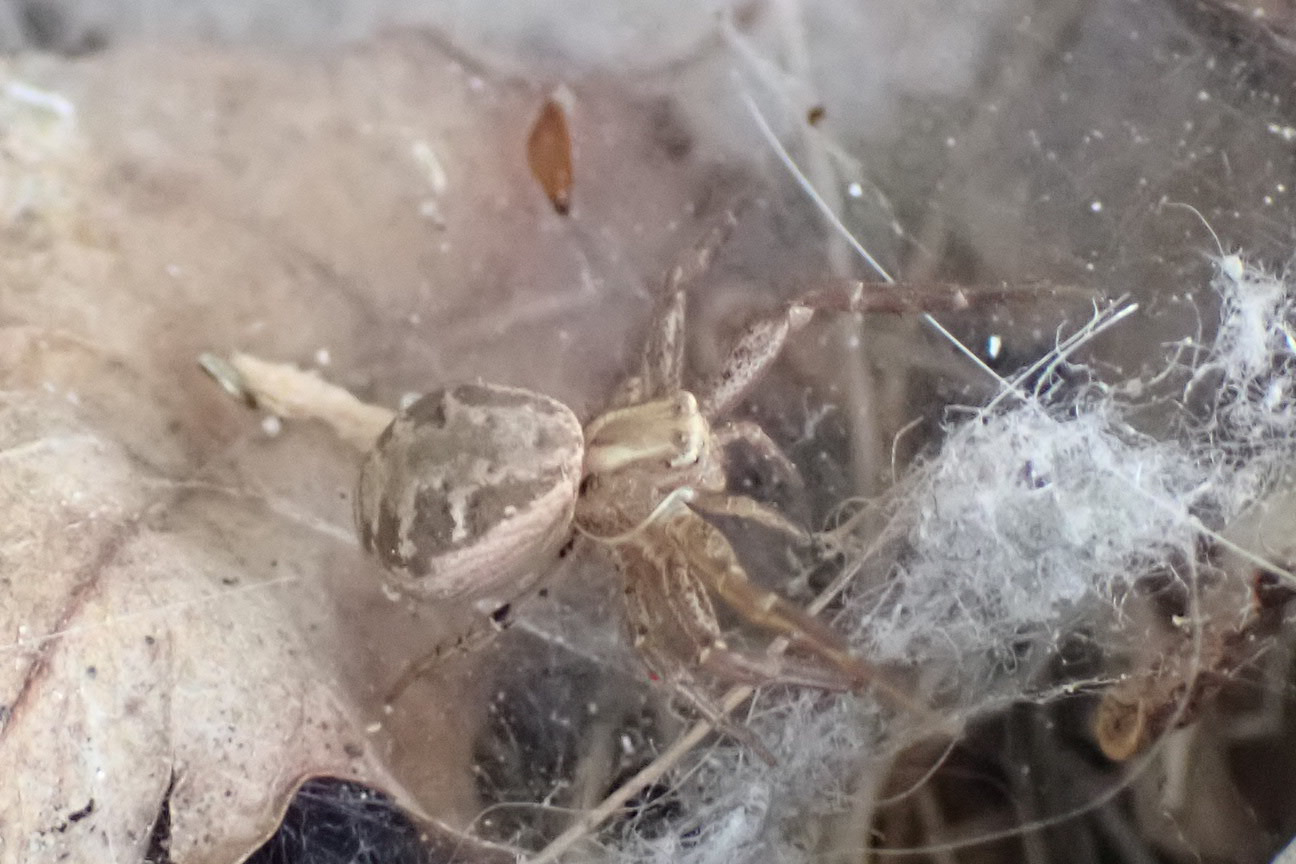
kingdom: Animalia
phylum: Arthropoda
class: Arachnida
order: Araneae
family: Thomisidae
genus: Xysticus
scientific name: Xysticus cristatus
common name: Almindelig krabbeedderkop
